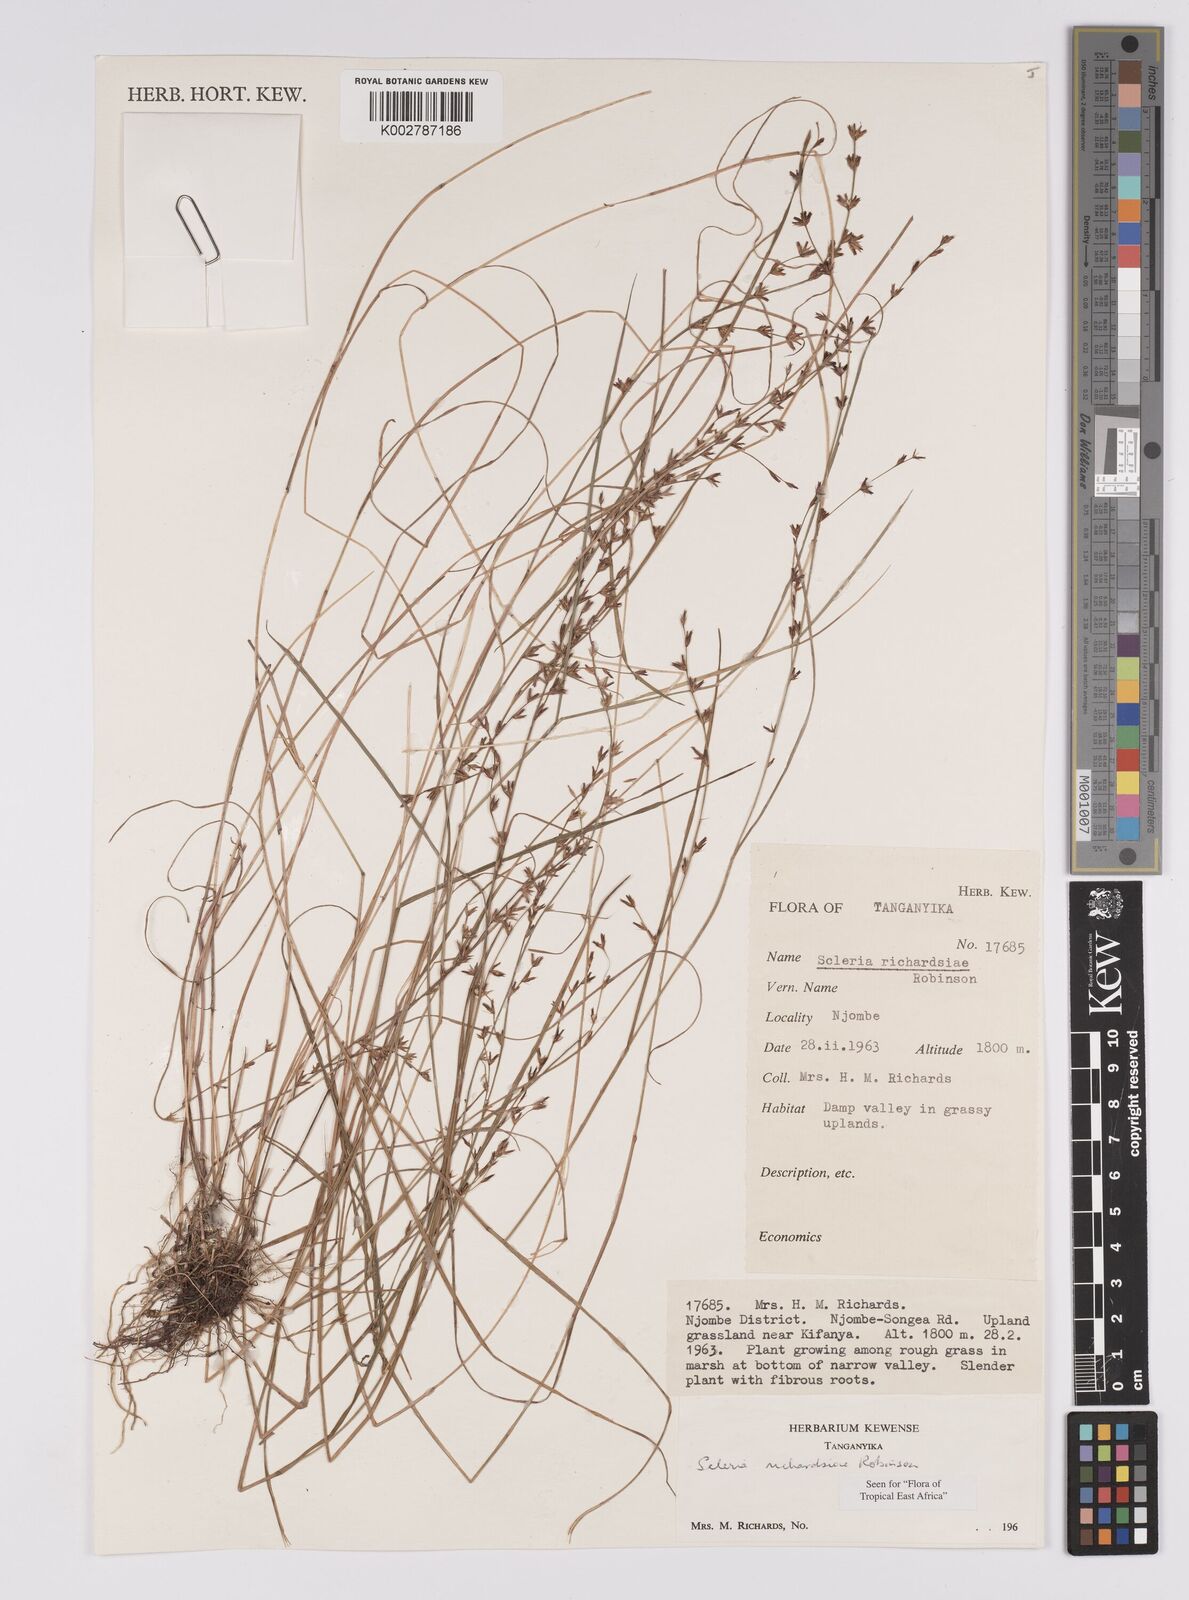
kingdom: Plantae
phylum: Tracheophyta
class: Liliopsida
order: Poales
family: Cyperaceae
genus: Scleria
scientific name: Scleria richardsiae
